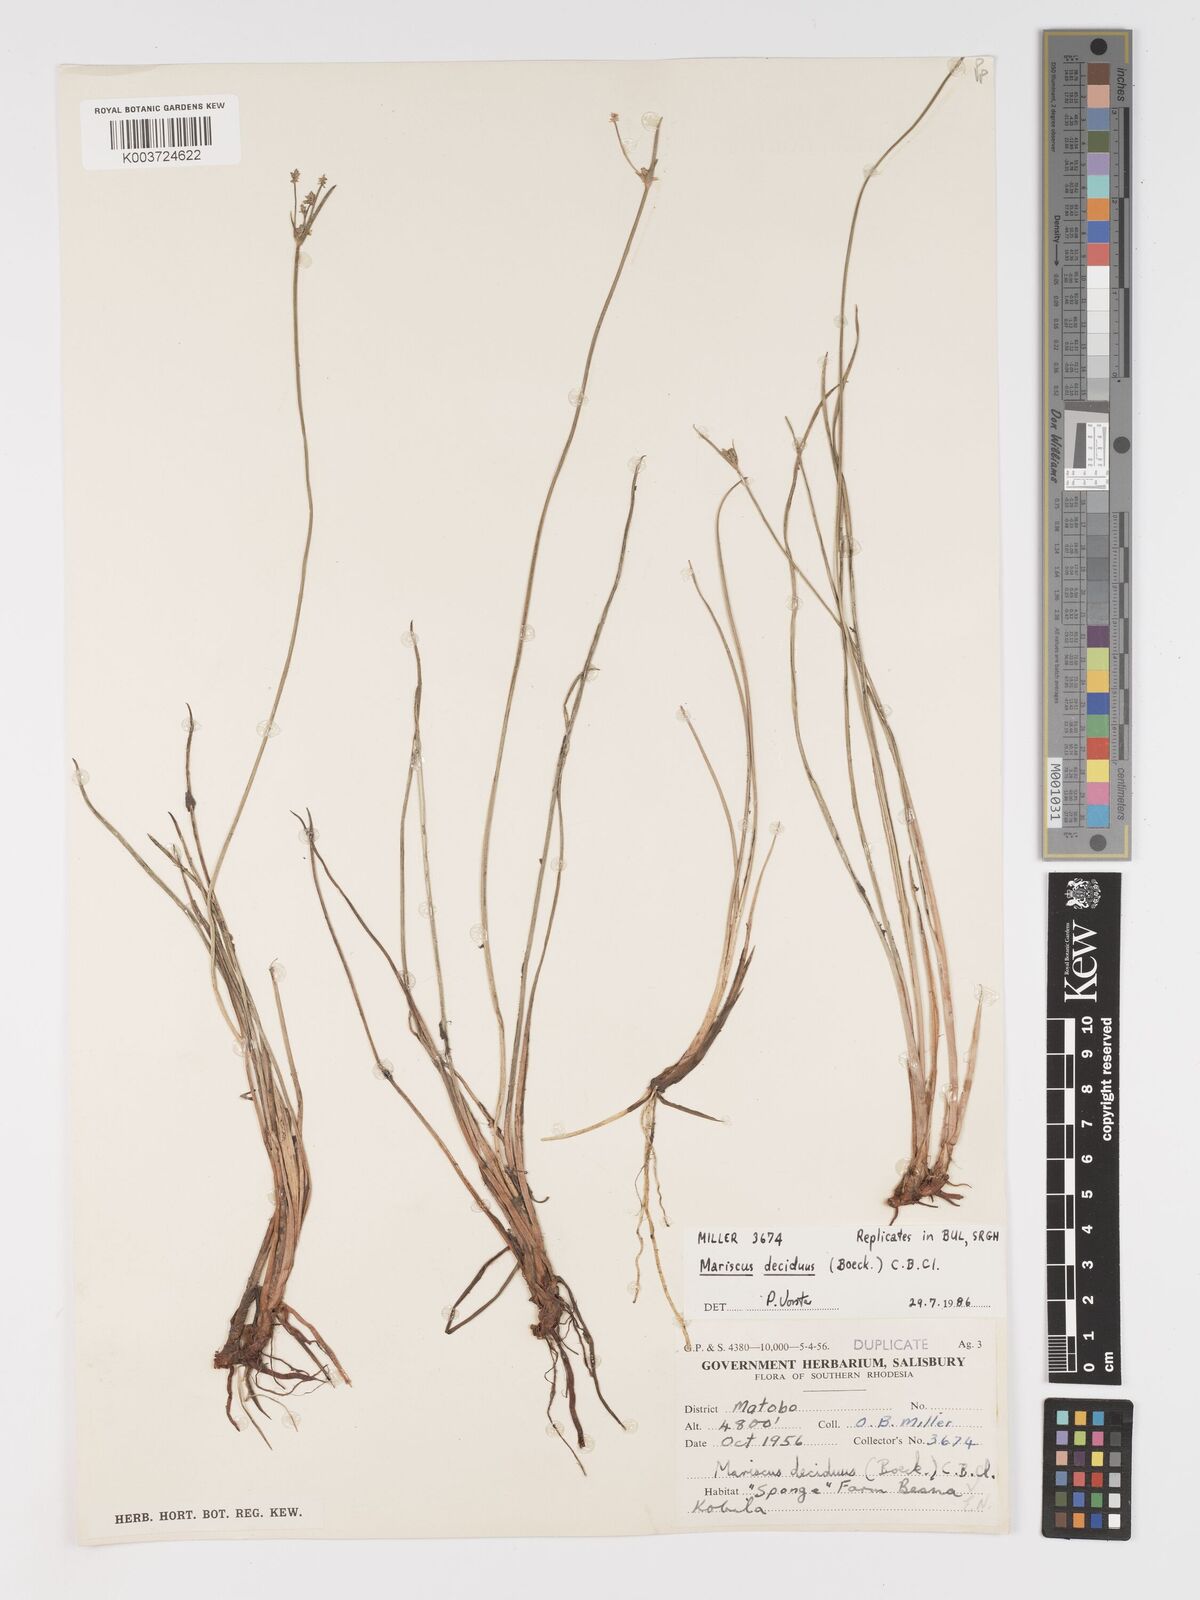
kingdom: Plantae
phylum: Tracheophyta
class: Liliopsida
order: Poales
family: Cyperaceae
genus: Cyperus
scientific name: Cyperus deciduus
